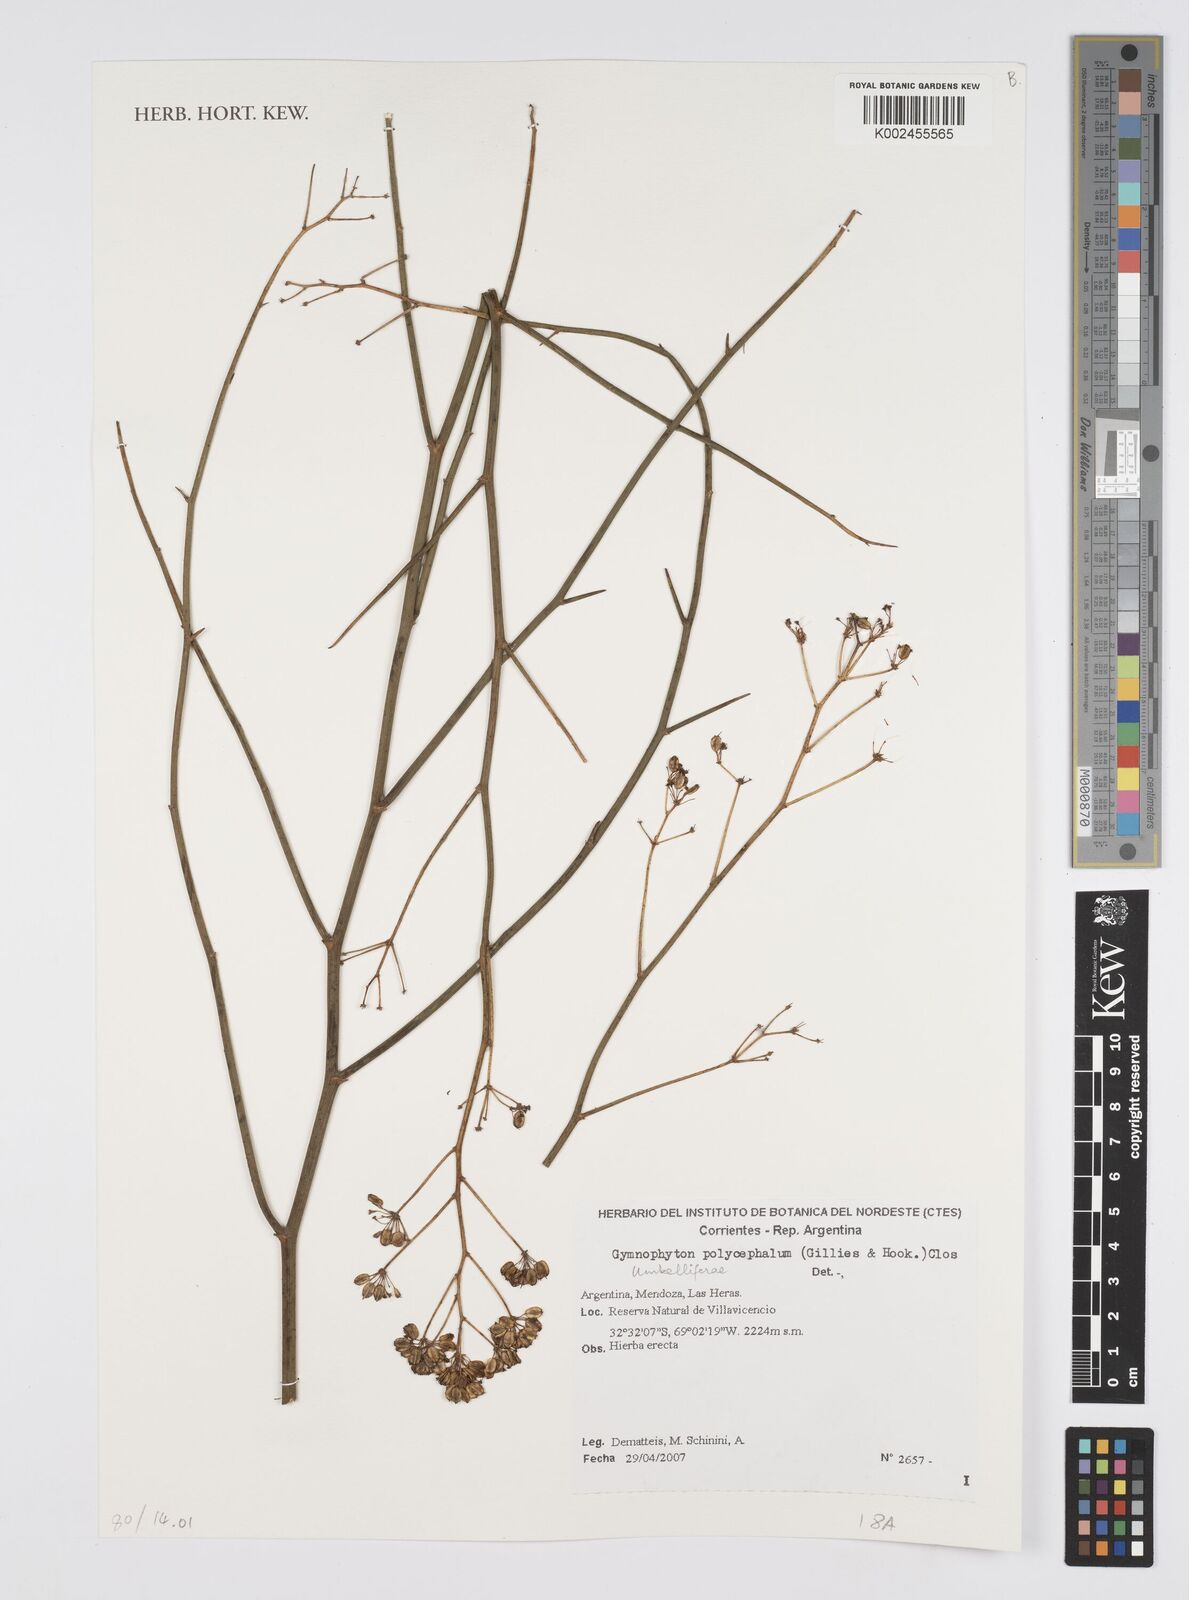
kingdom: Plantae
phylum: Tracheophyta
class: Magnoliopsida
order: Apiales
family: Apiaceae
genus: Gymnophyton
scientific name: Gymnophyton polycephalum
